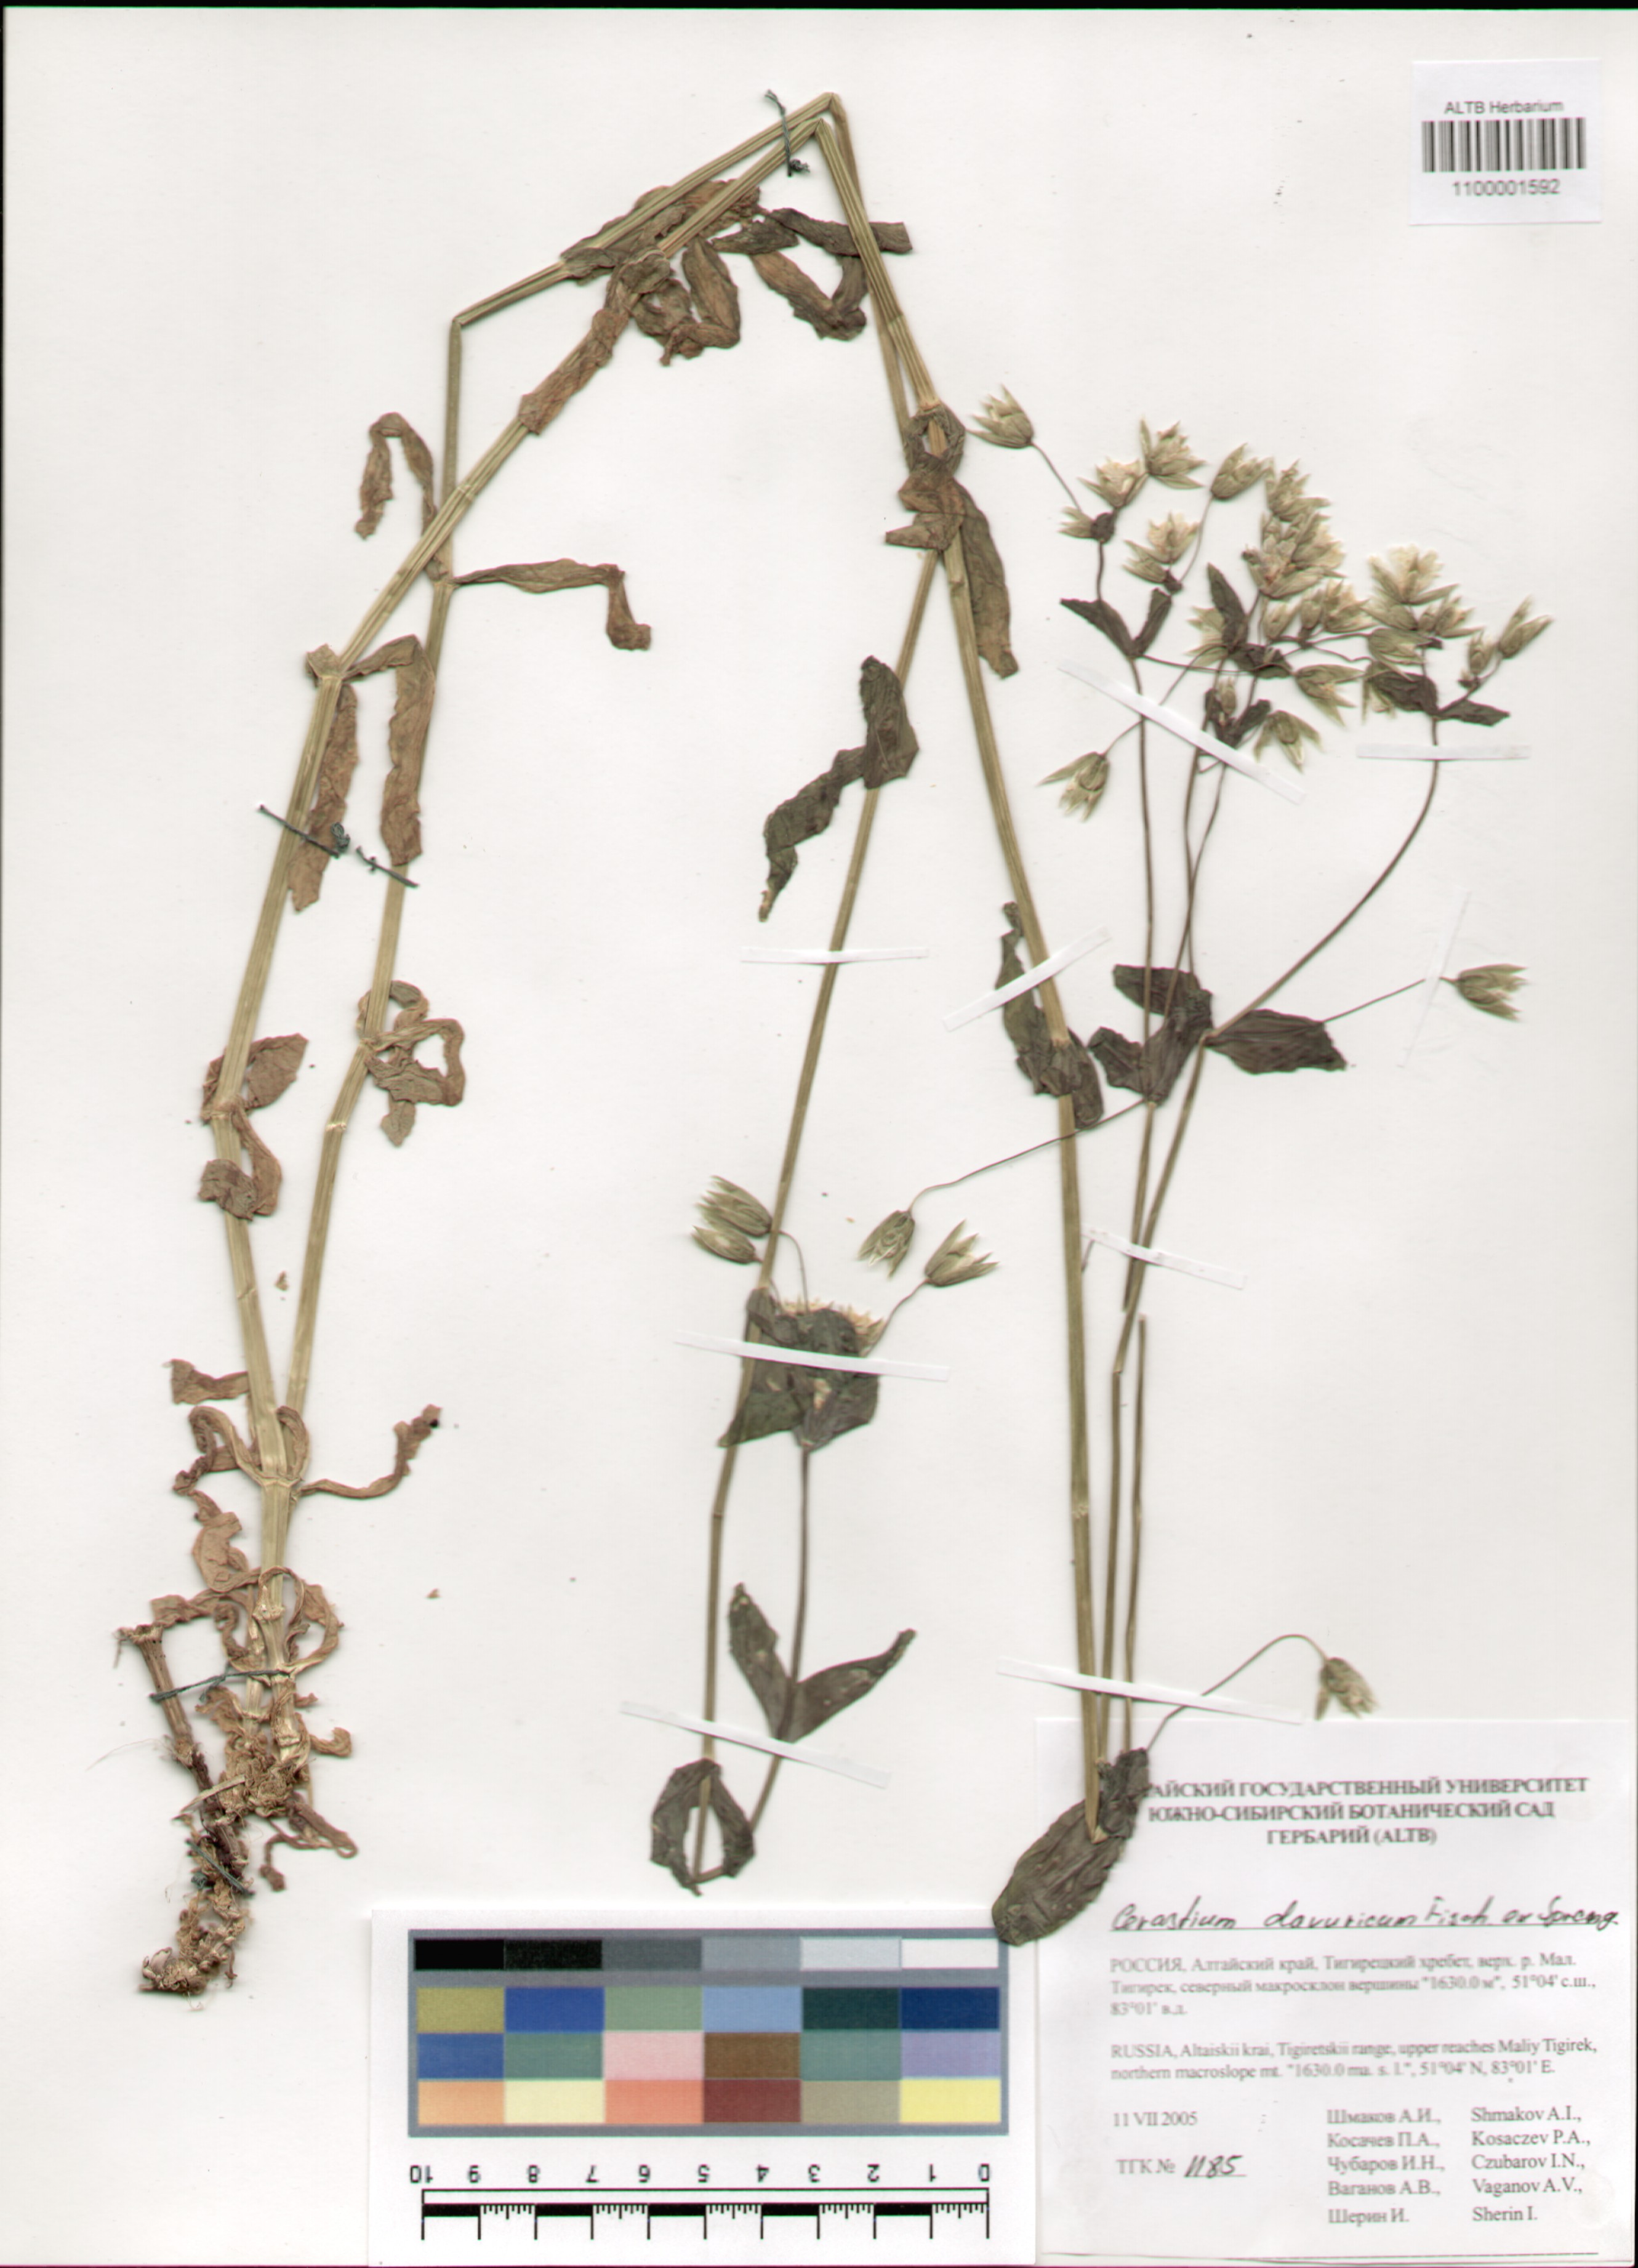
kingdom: Plantae
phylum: Tracheophyta
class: Magnoliopsida
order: Caryophyllales
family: Caryophyllaceae
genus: Dichodon
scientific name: Dichodon davuricum
